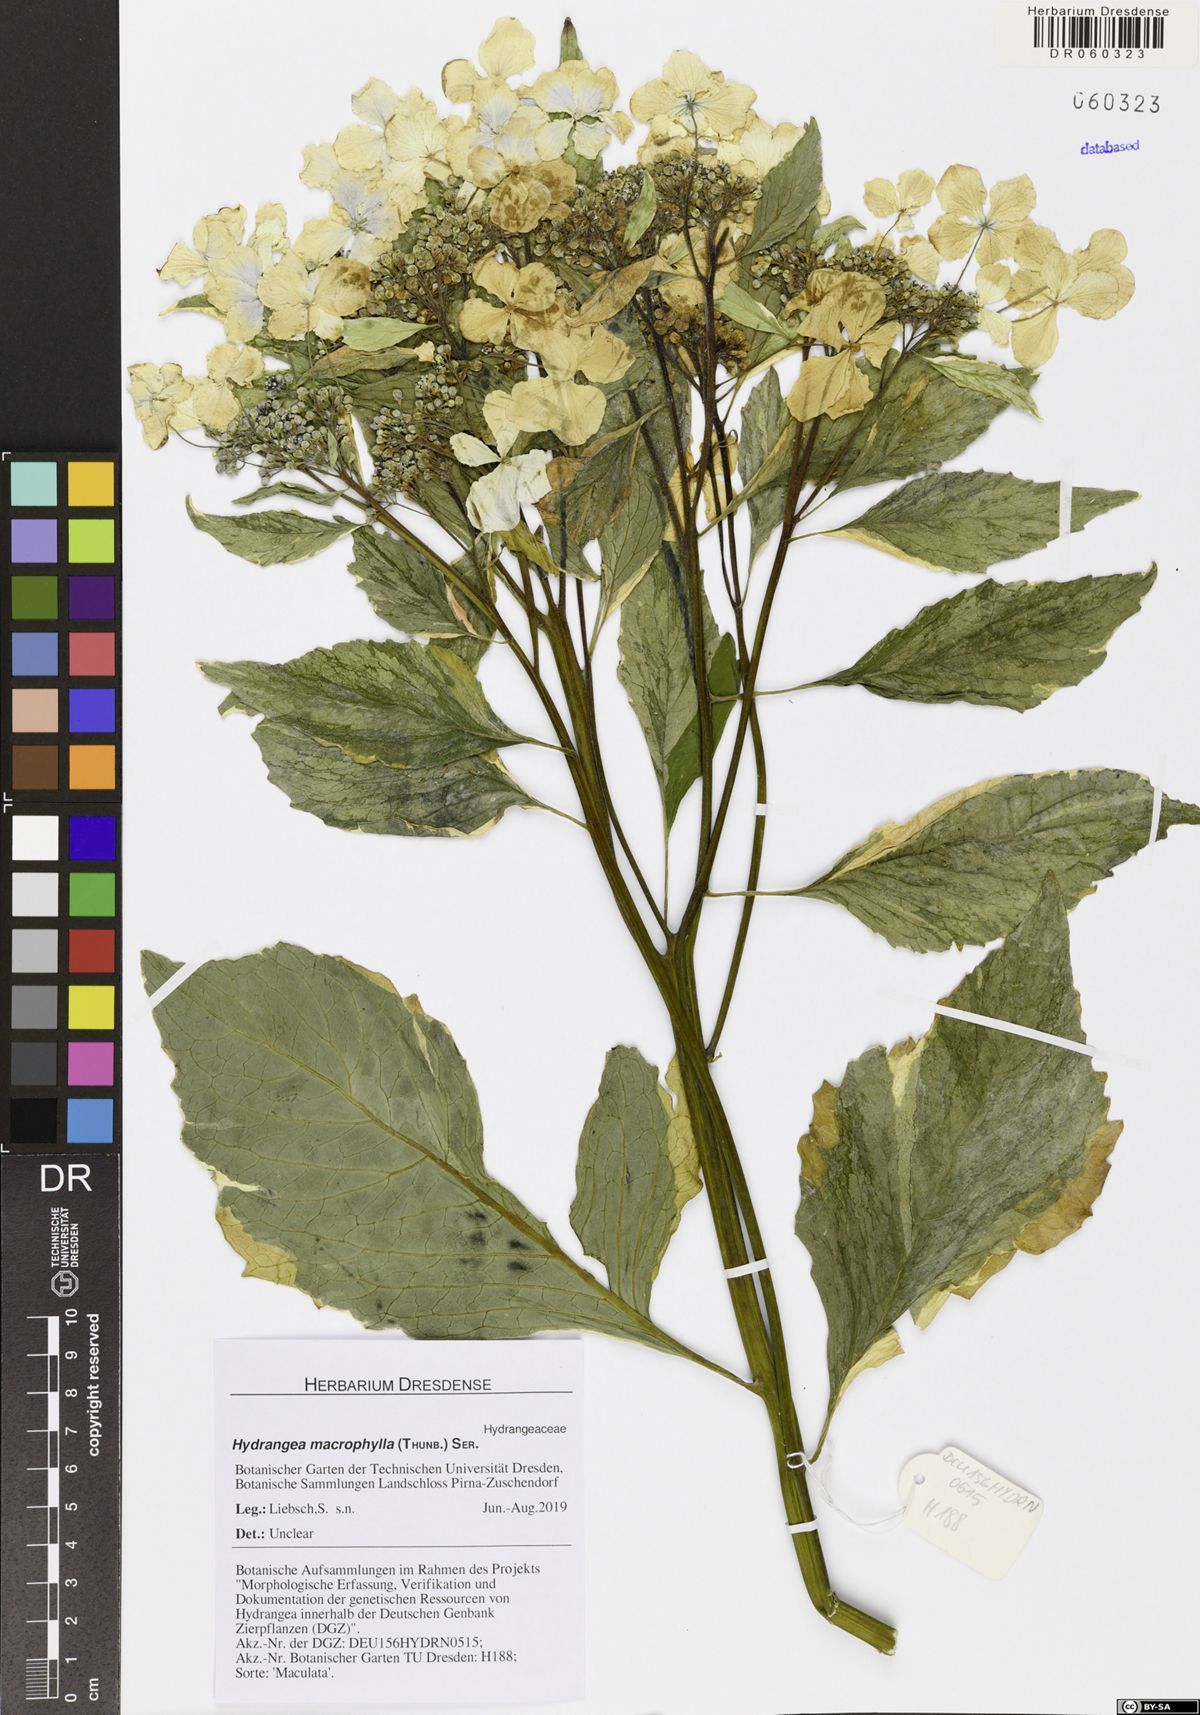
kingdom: Plantae
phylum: Tracheophyta
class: Magnoliopsida
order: Cornales
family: Hydrangeaceae
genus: Hydrangea
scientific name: Hydrangea macrophylla
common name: Hydrangea
